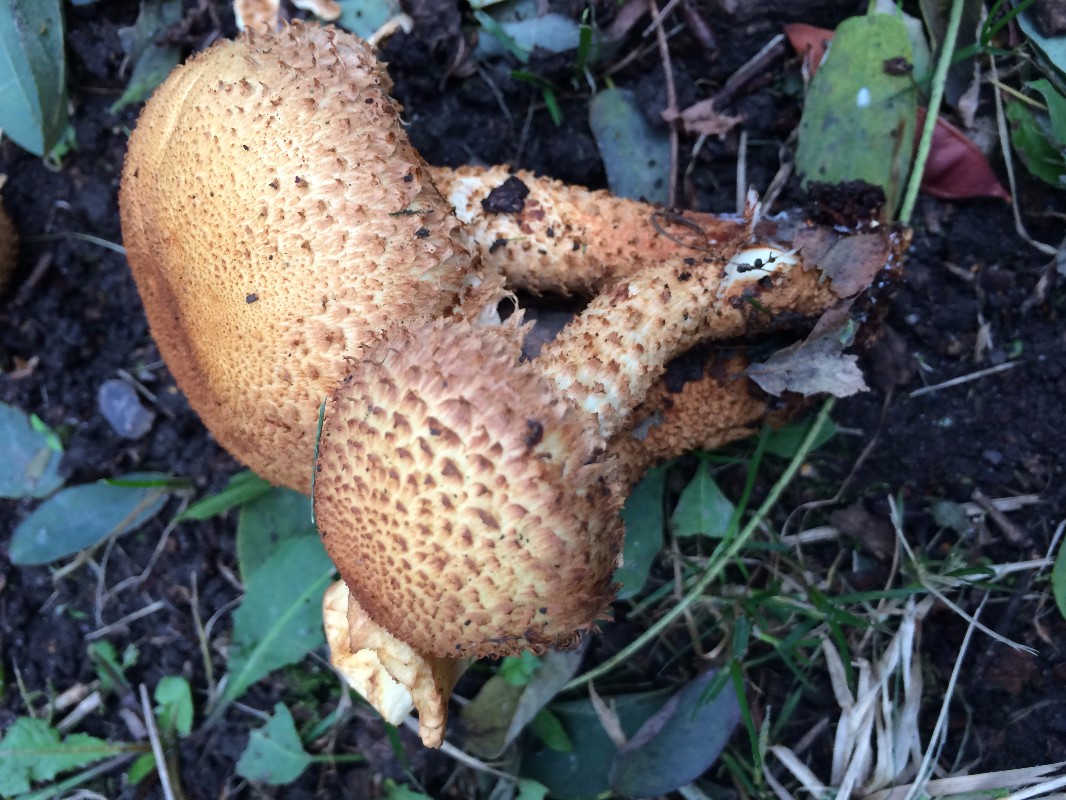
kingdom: Fungi
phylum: Basidiomycota
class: Agaricomycetes
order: Agaricales
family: Strophariaceae
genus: Pholiota
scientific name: Pholiota squarrosa
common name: krumskællet skælhat
